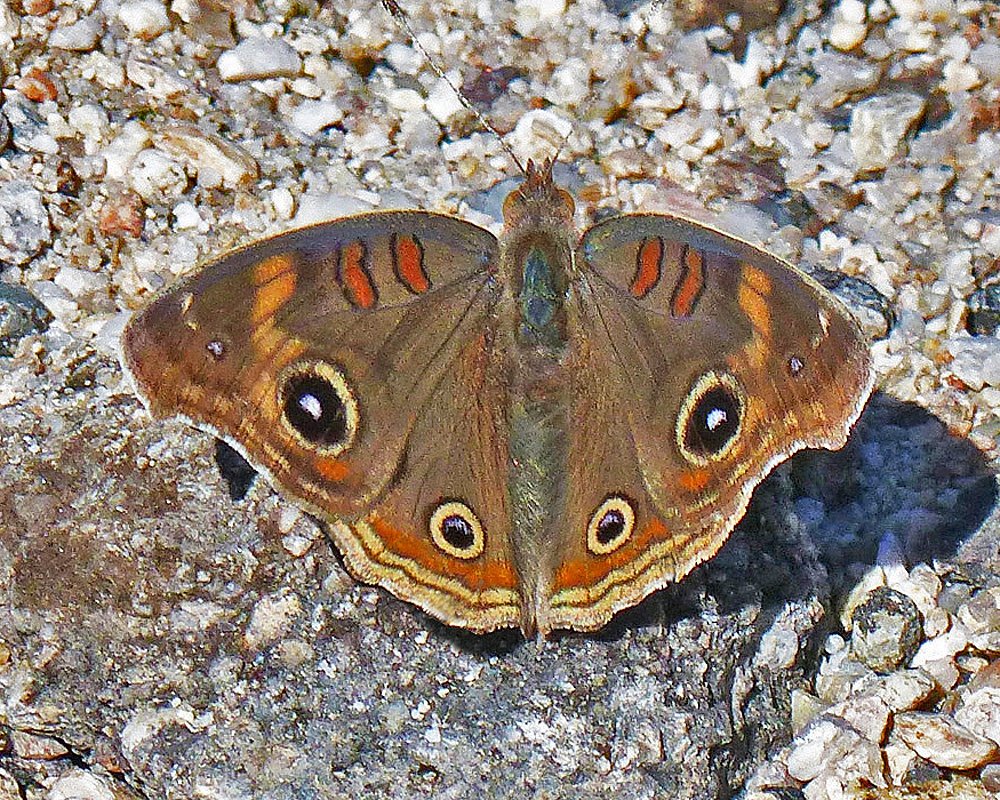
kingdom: Animalia
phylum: Arthropoda
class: Insecta
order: Lepidoptera
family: Nymphalidae
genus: Junonia
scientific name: Junonia coenia
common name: Common Buckeye
